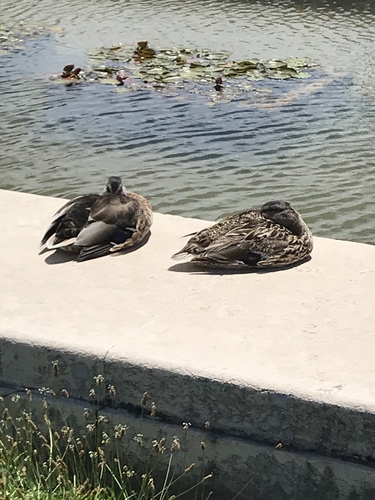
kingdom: Animalia
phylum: Chordata
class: Aves
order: Anseriformes
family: Anatidae
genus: Anas
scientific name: Anas platyrhynchos
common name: Mallard
